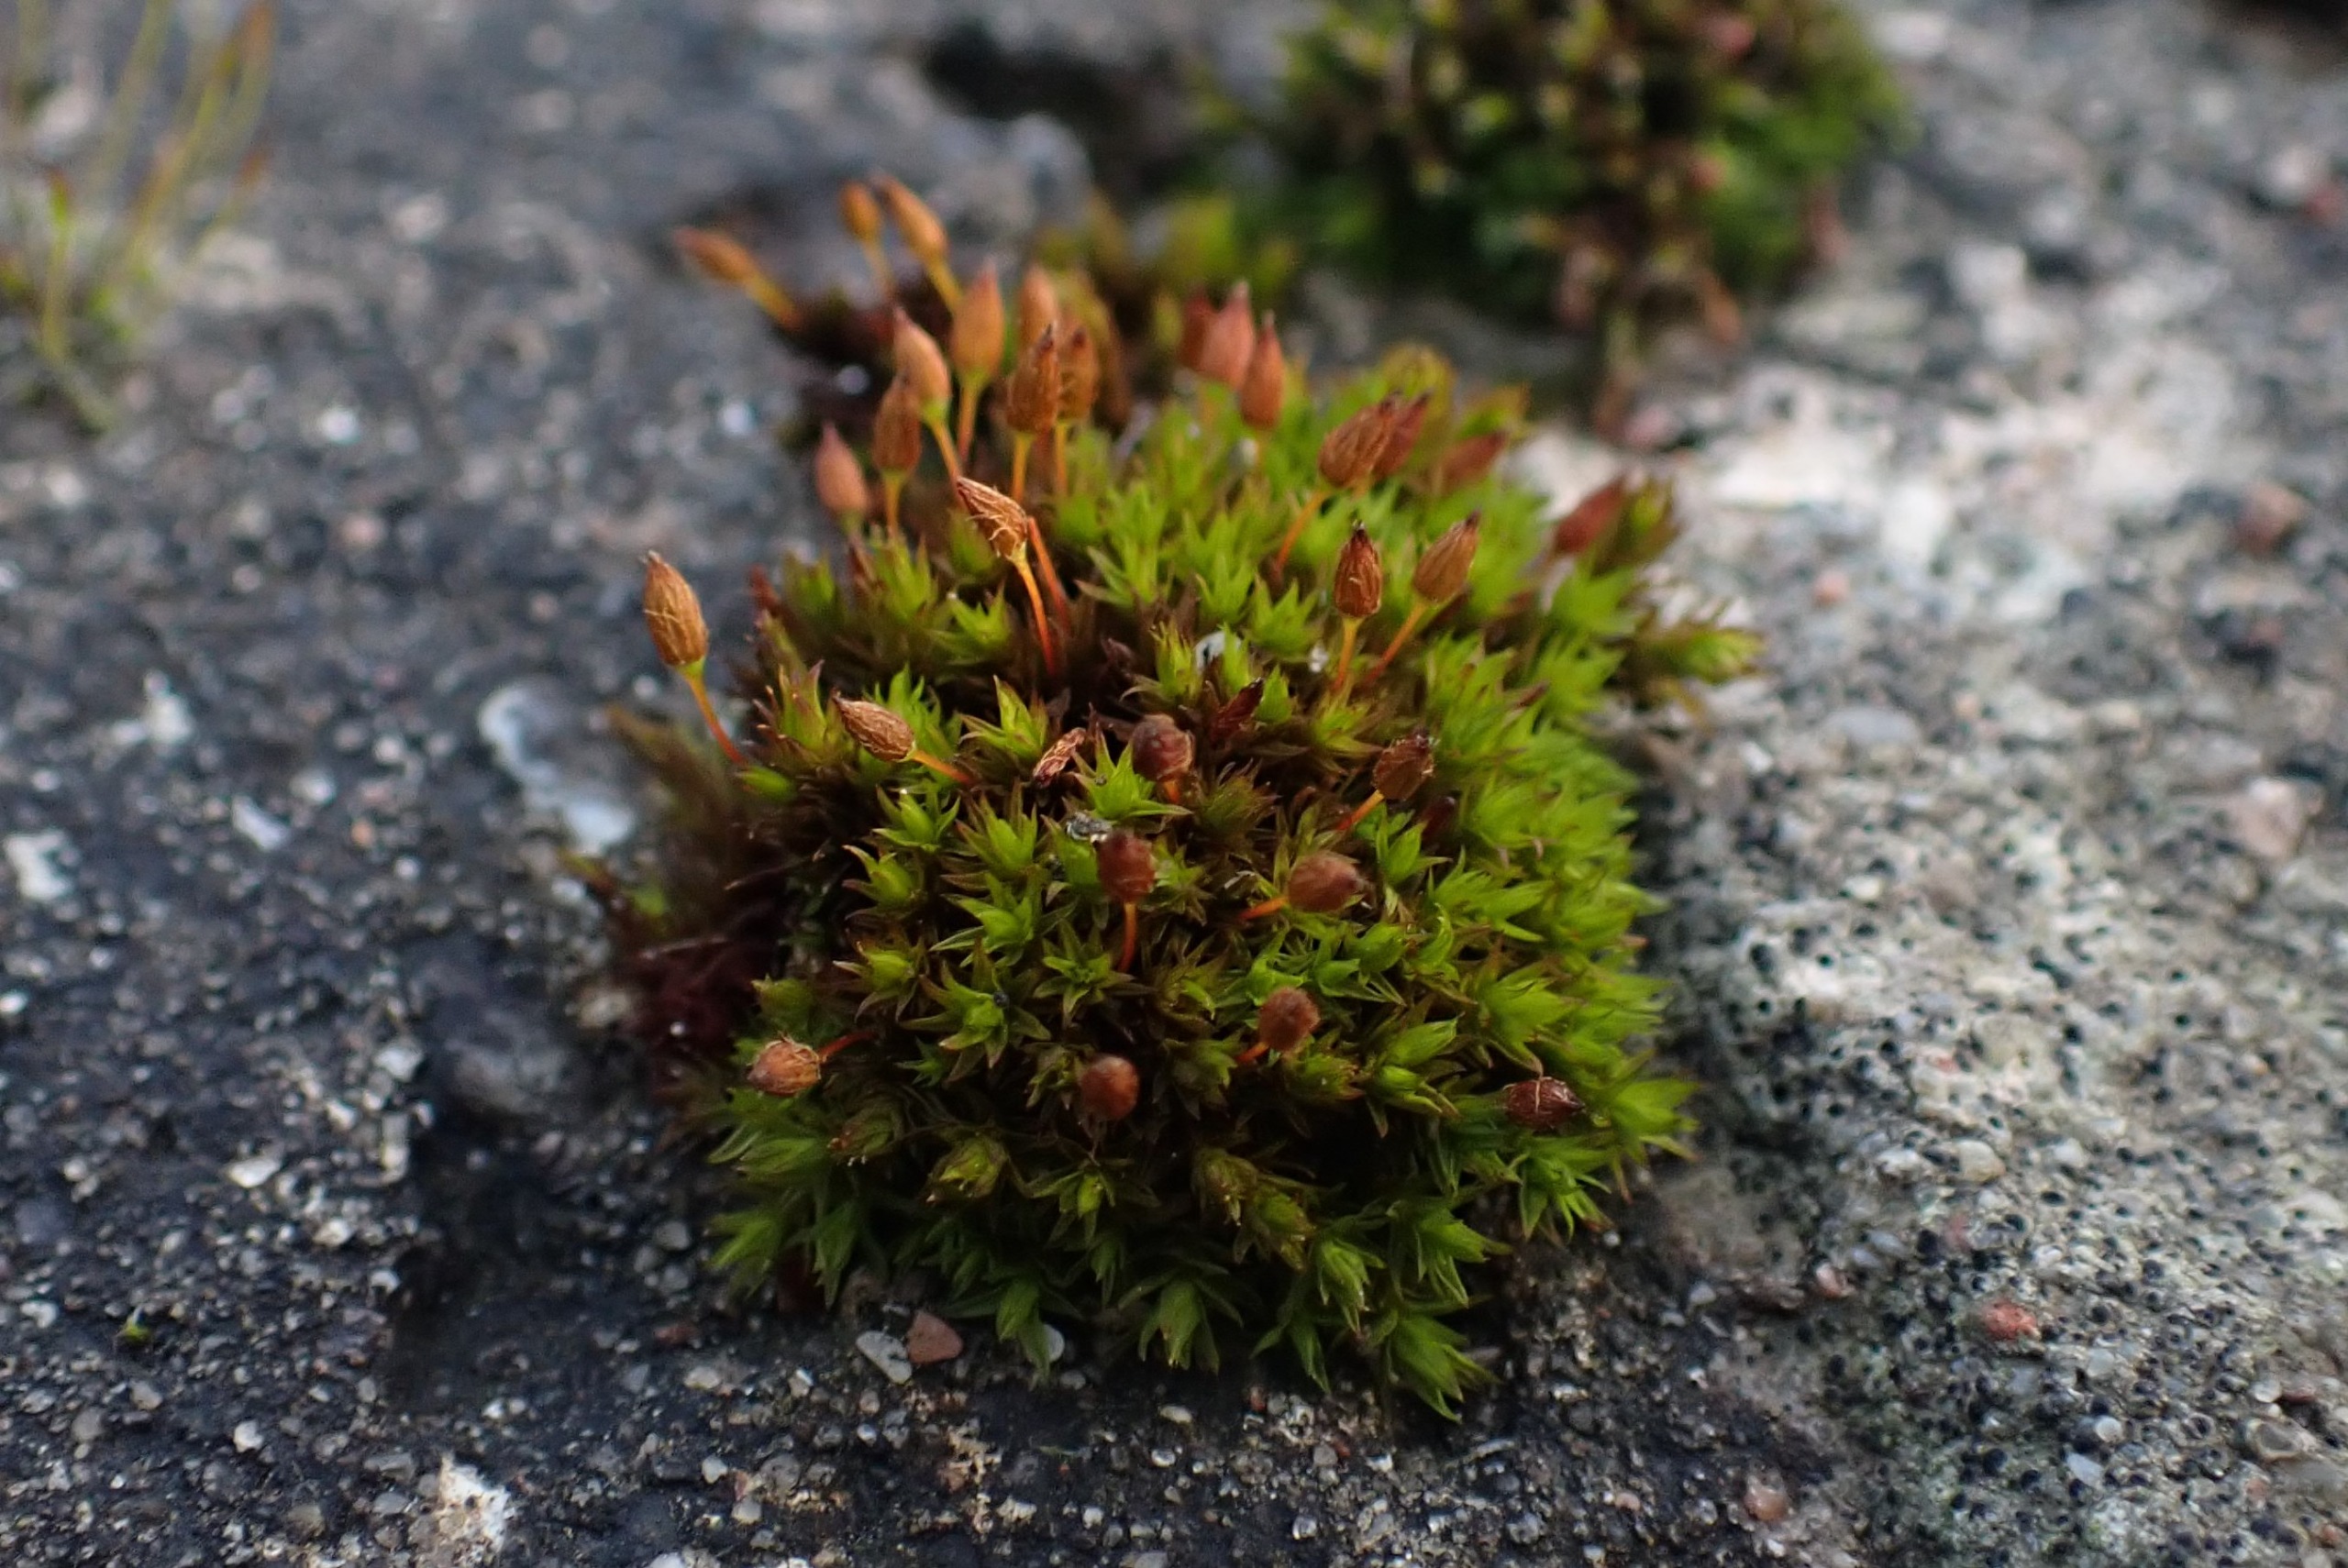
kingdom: Plantae
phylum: Bryophyta
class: Bryopsida
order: Orthotrichales
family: Orthotrichaceae
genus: Orthotrichum
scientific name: Orthotrichum anomalum
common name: Mørk furehætte
